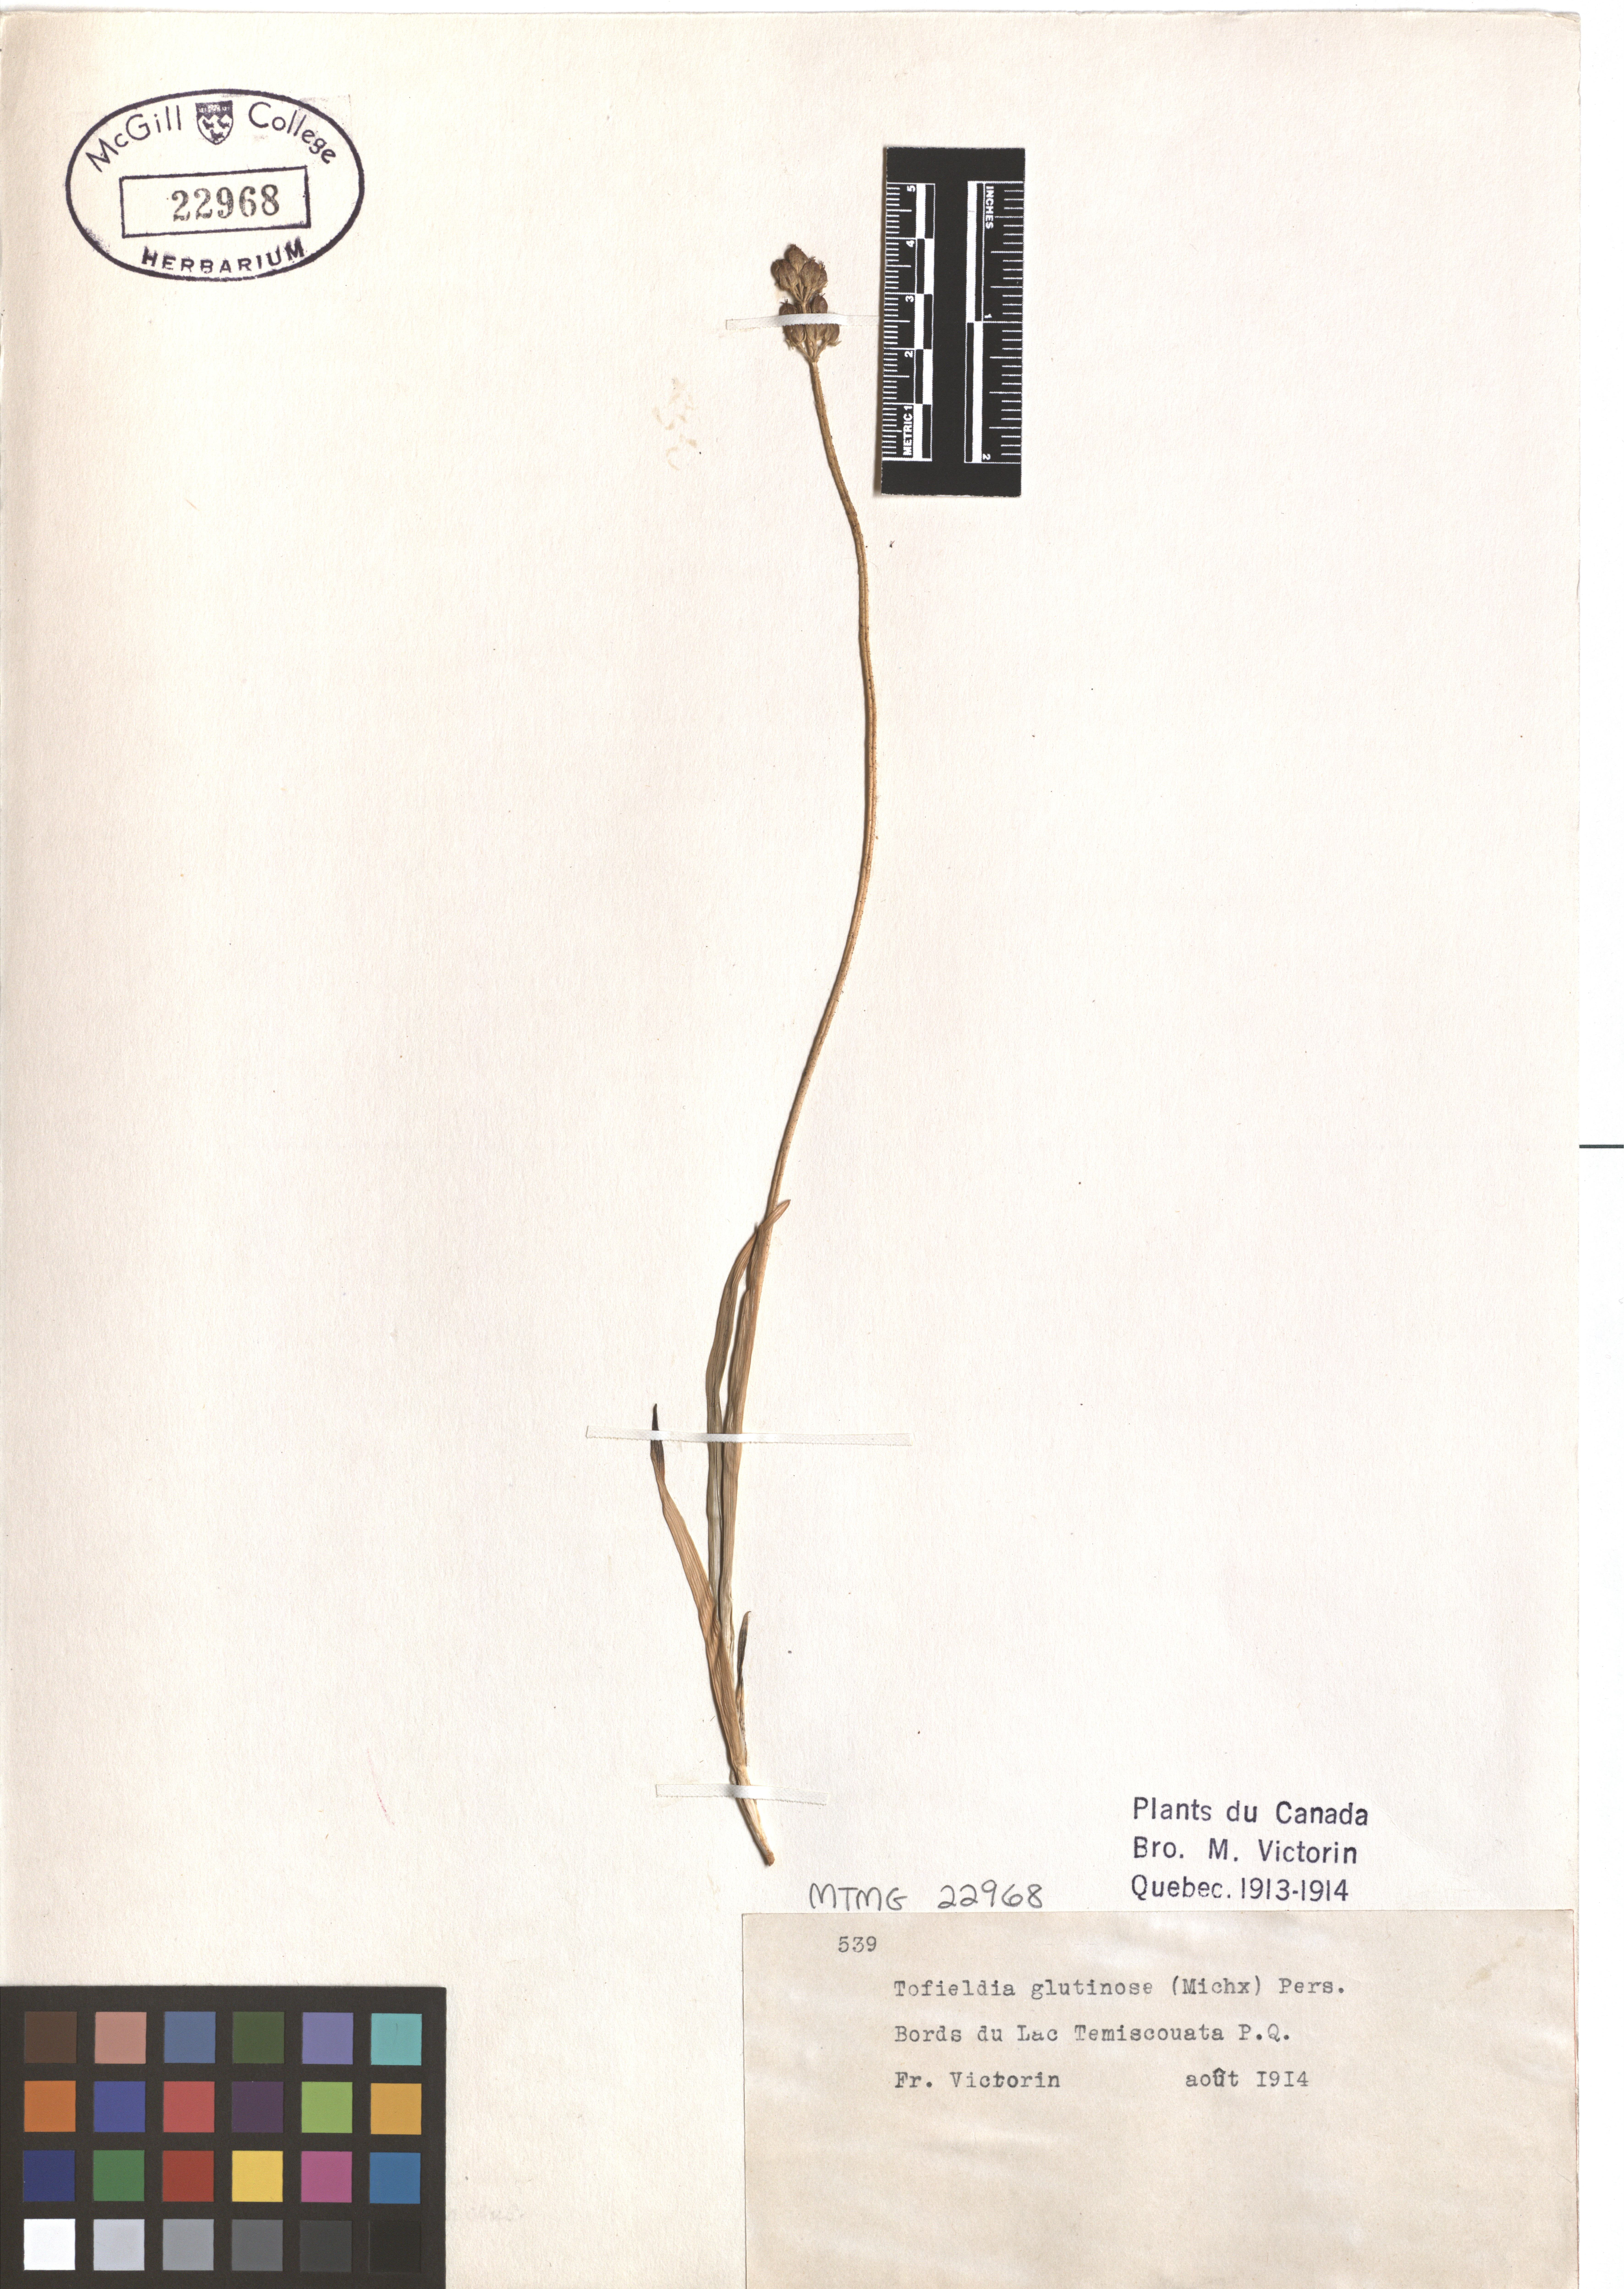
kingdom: Plantae
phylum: Tracheophyta
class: Liliopsida
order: Alismatales
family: Tofieldiaceae
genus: Triantha
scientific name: Triantha glutinosa
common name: Glutinous tofieldia
